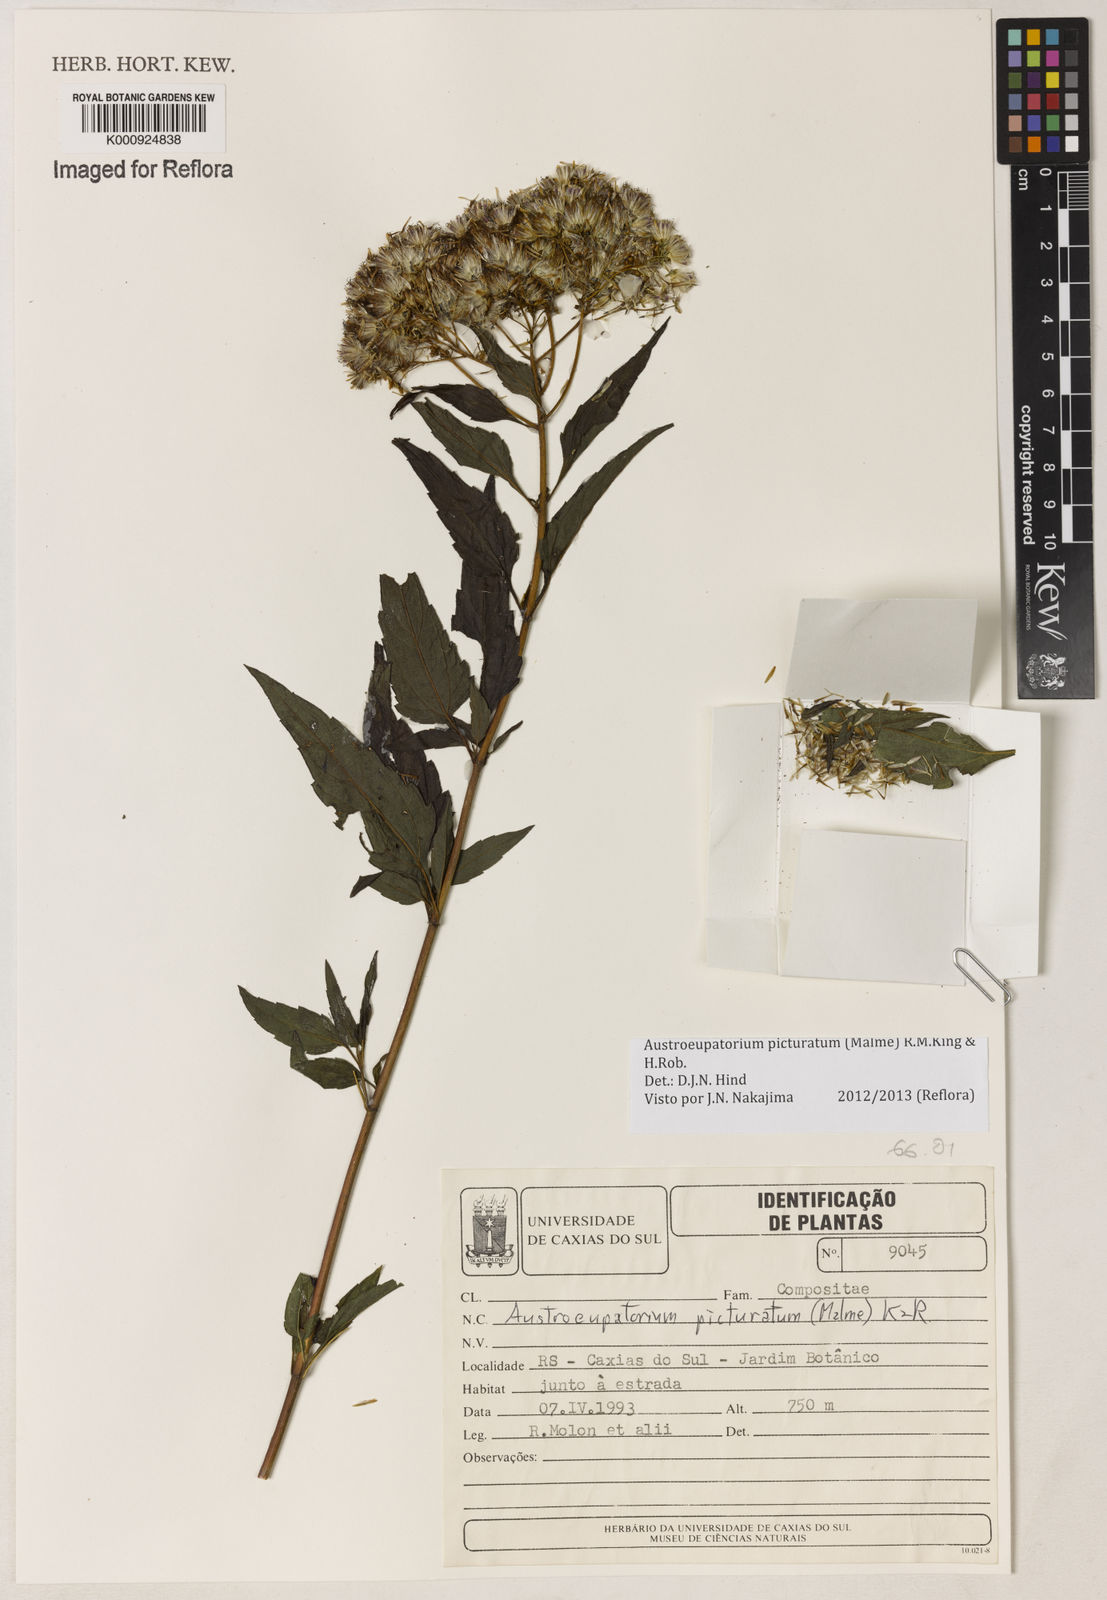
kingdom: Plantae
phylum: Tracheophyta
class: Magnoliopsida
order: Asterales
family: Asteraceae
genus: Austroeupatorium
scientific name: Austroeupatorium picturatum
